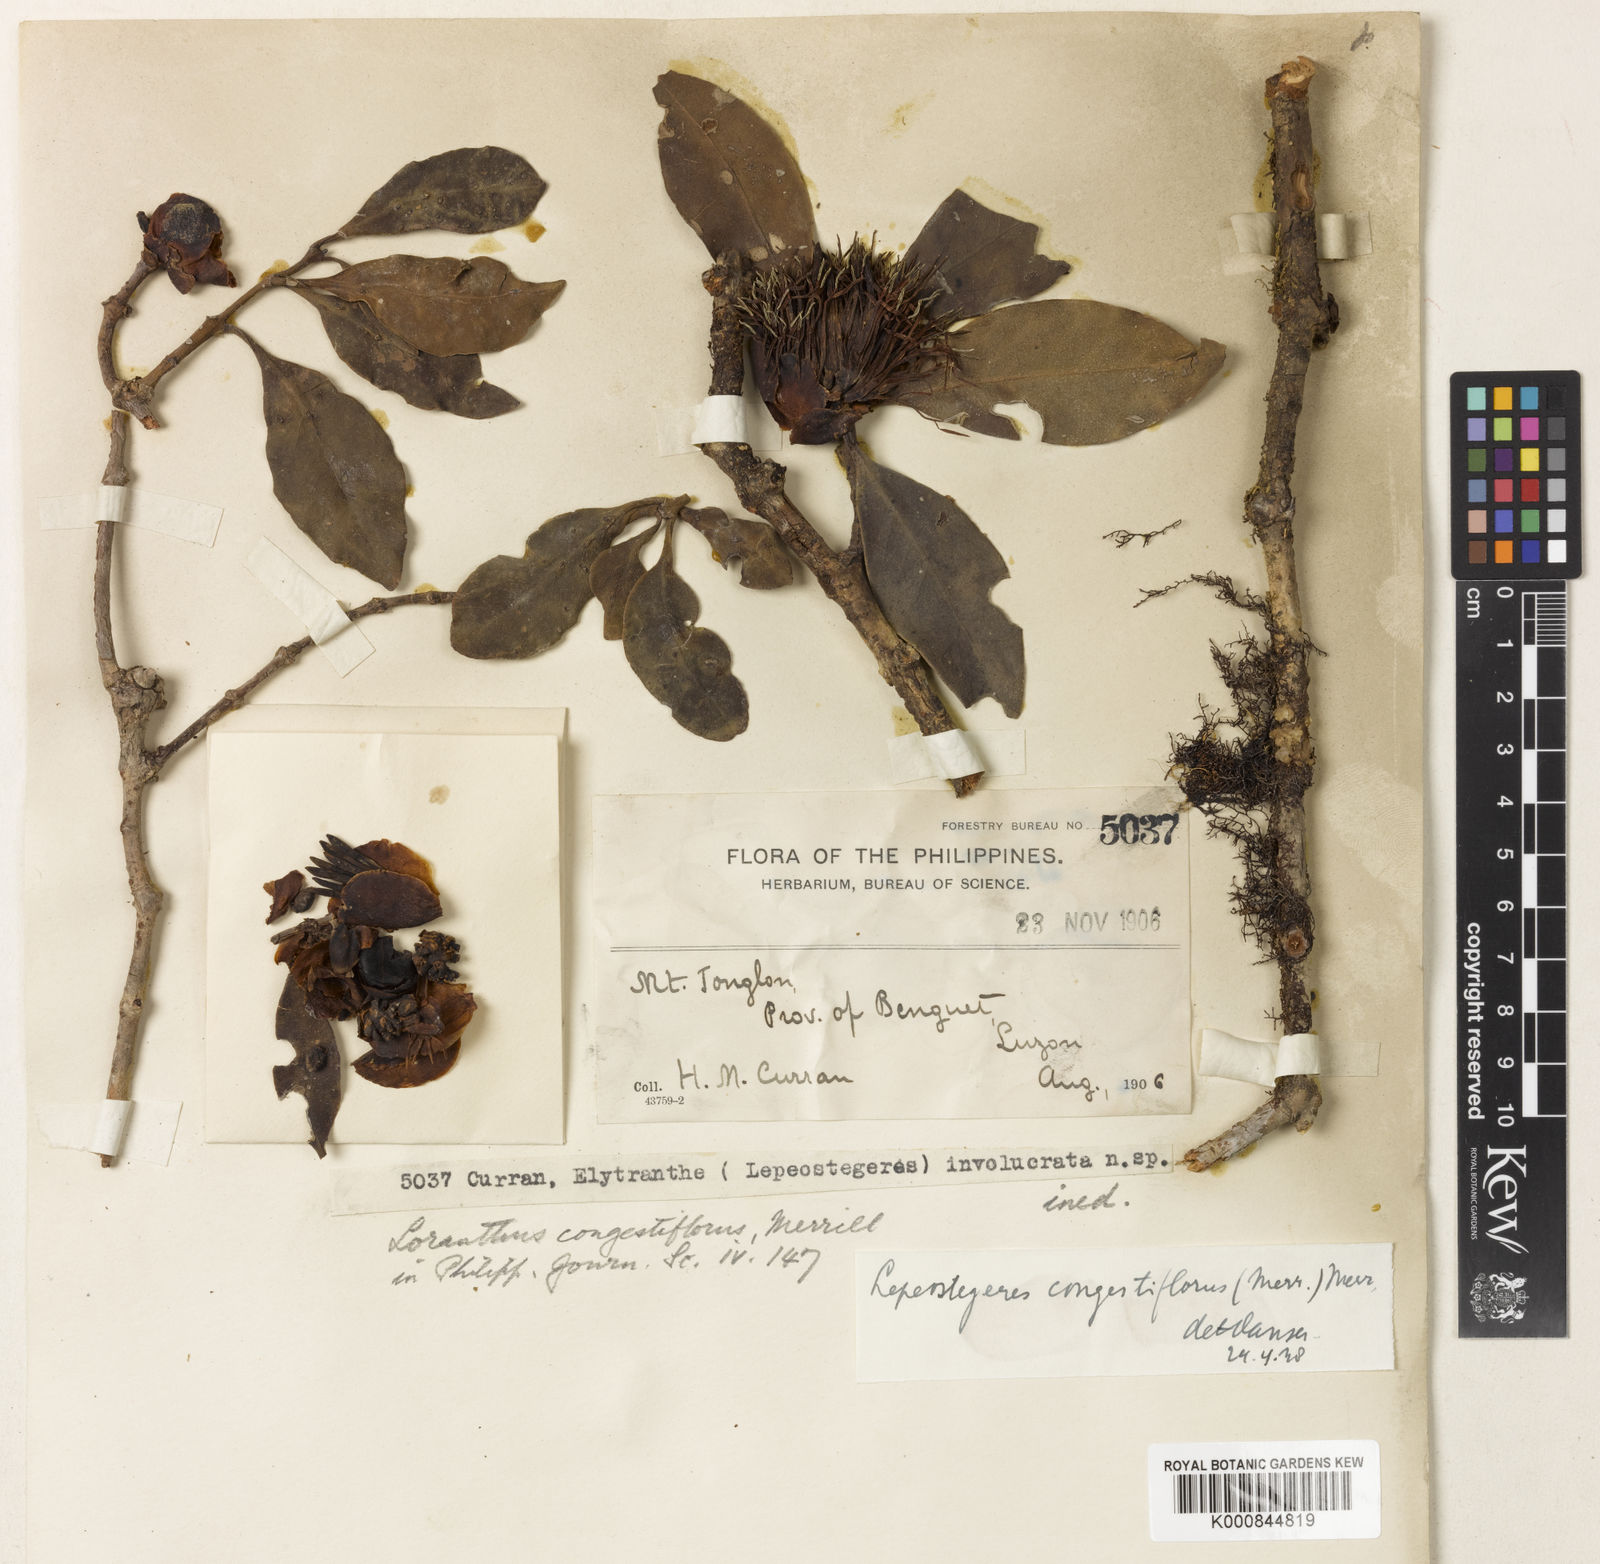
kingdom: Plantae
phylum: Tracheophyta
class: Magnoliopsida
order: Santalales
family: Loranthaceae
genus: Lepeostegeres
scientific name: Lepeostegeres congestiflorus
